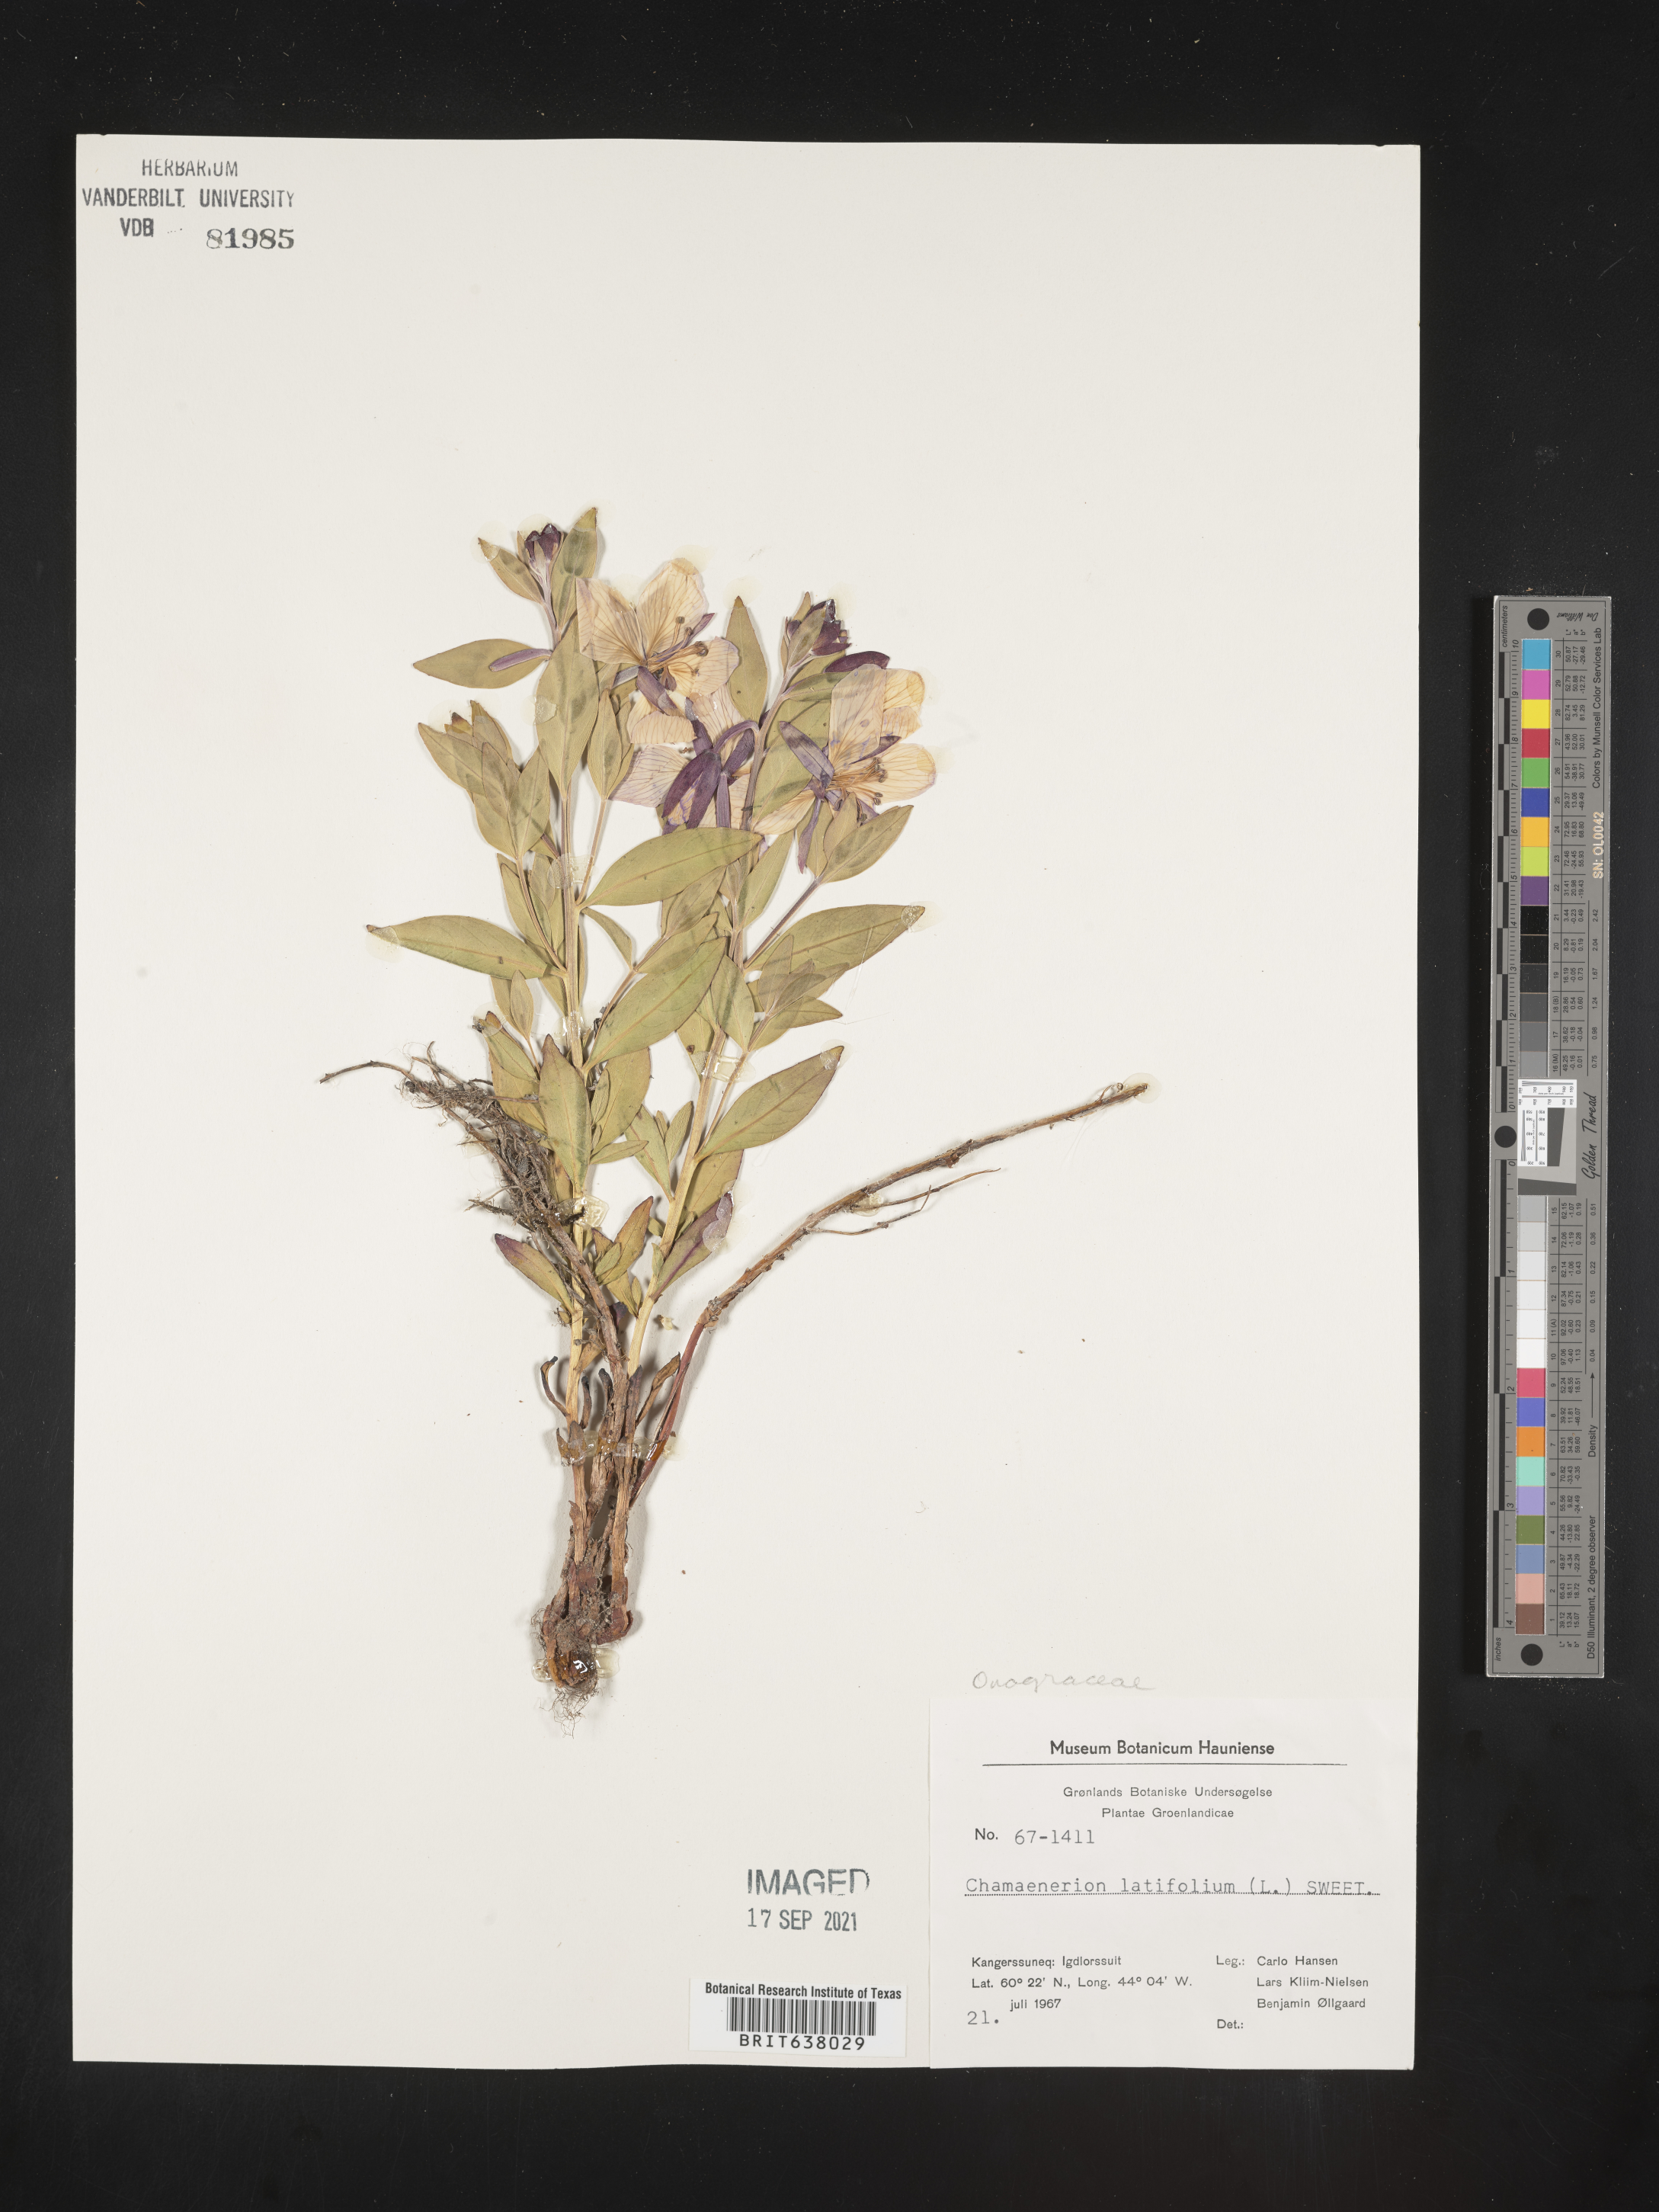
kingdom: Plantae
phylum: Tracheophyta
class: Magnoliopsida
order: Myrtales
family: Onagraceae
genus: Chamaenerion
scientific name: Chamaenerion
